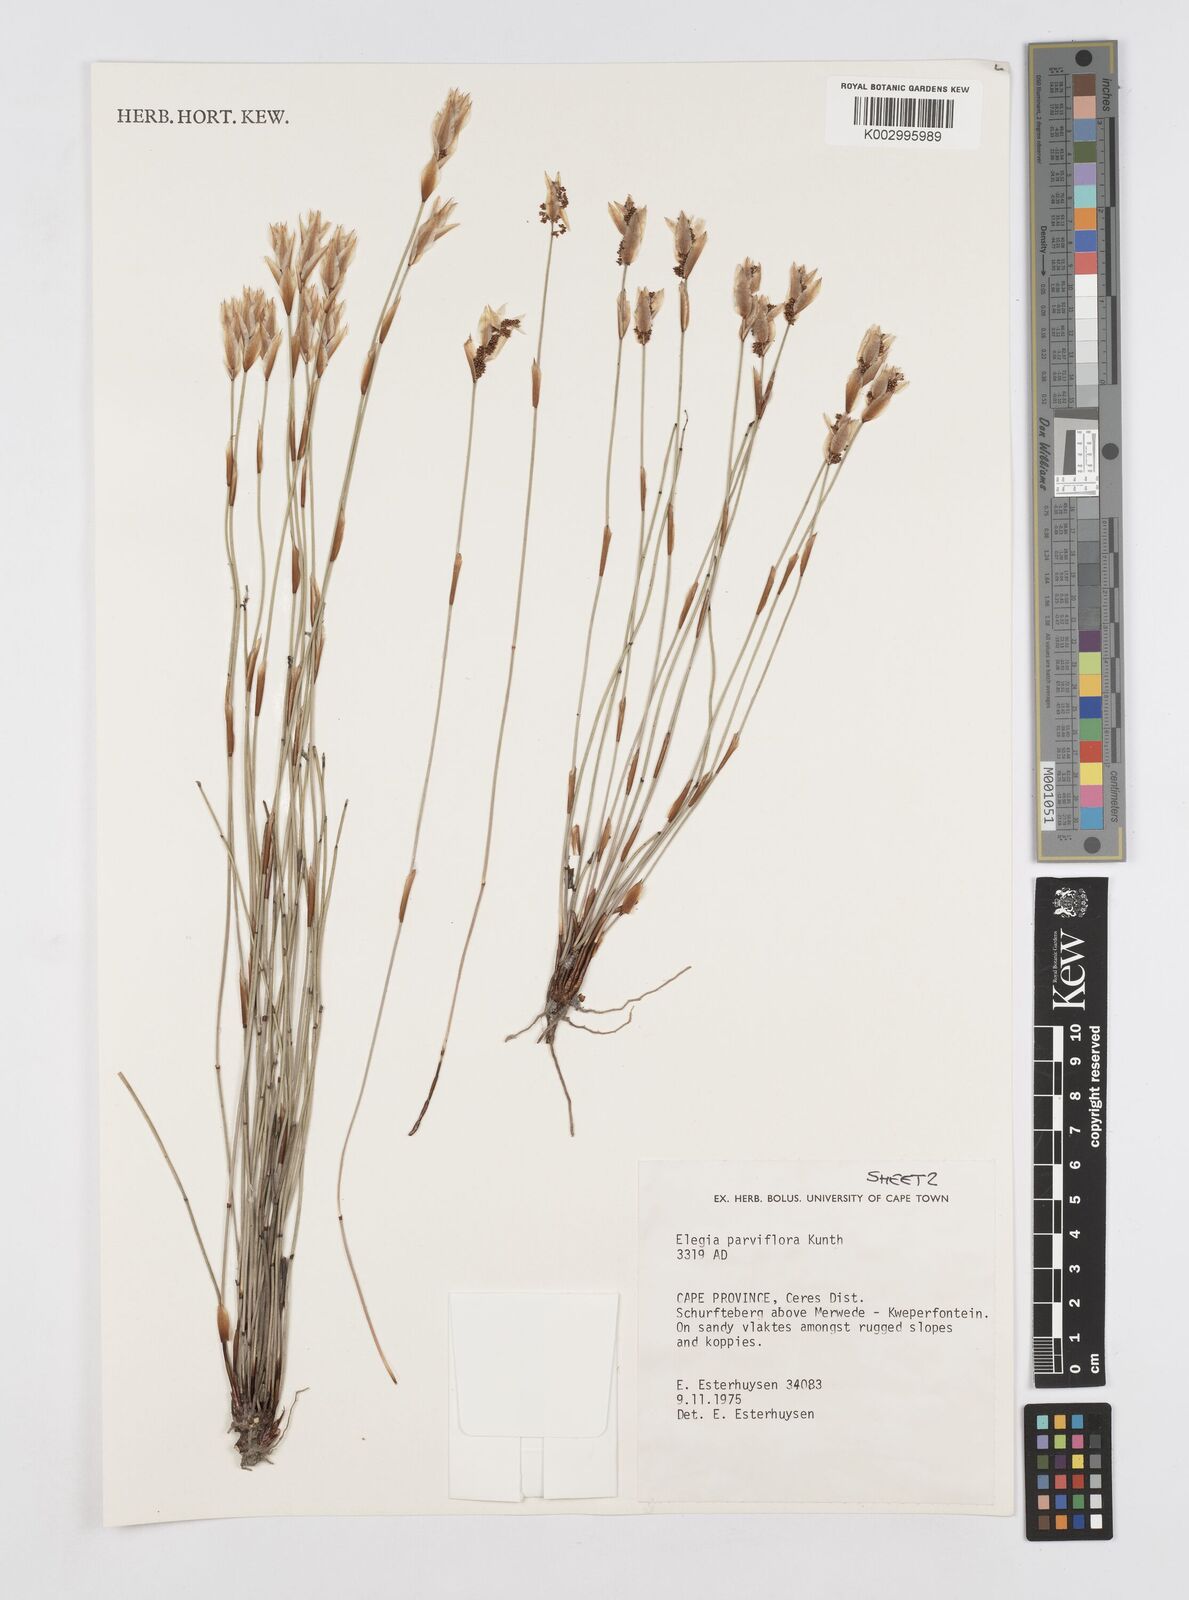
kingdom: Plantae
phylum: Tracheophyta
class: Liliopsida
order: Poales
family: Restionaceae
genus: Cannomois
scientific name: Cannomois parviflora
